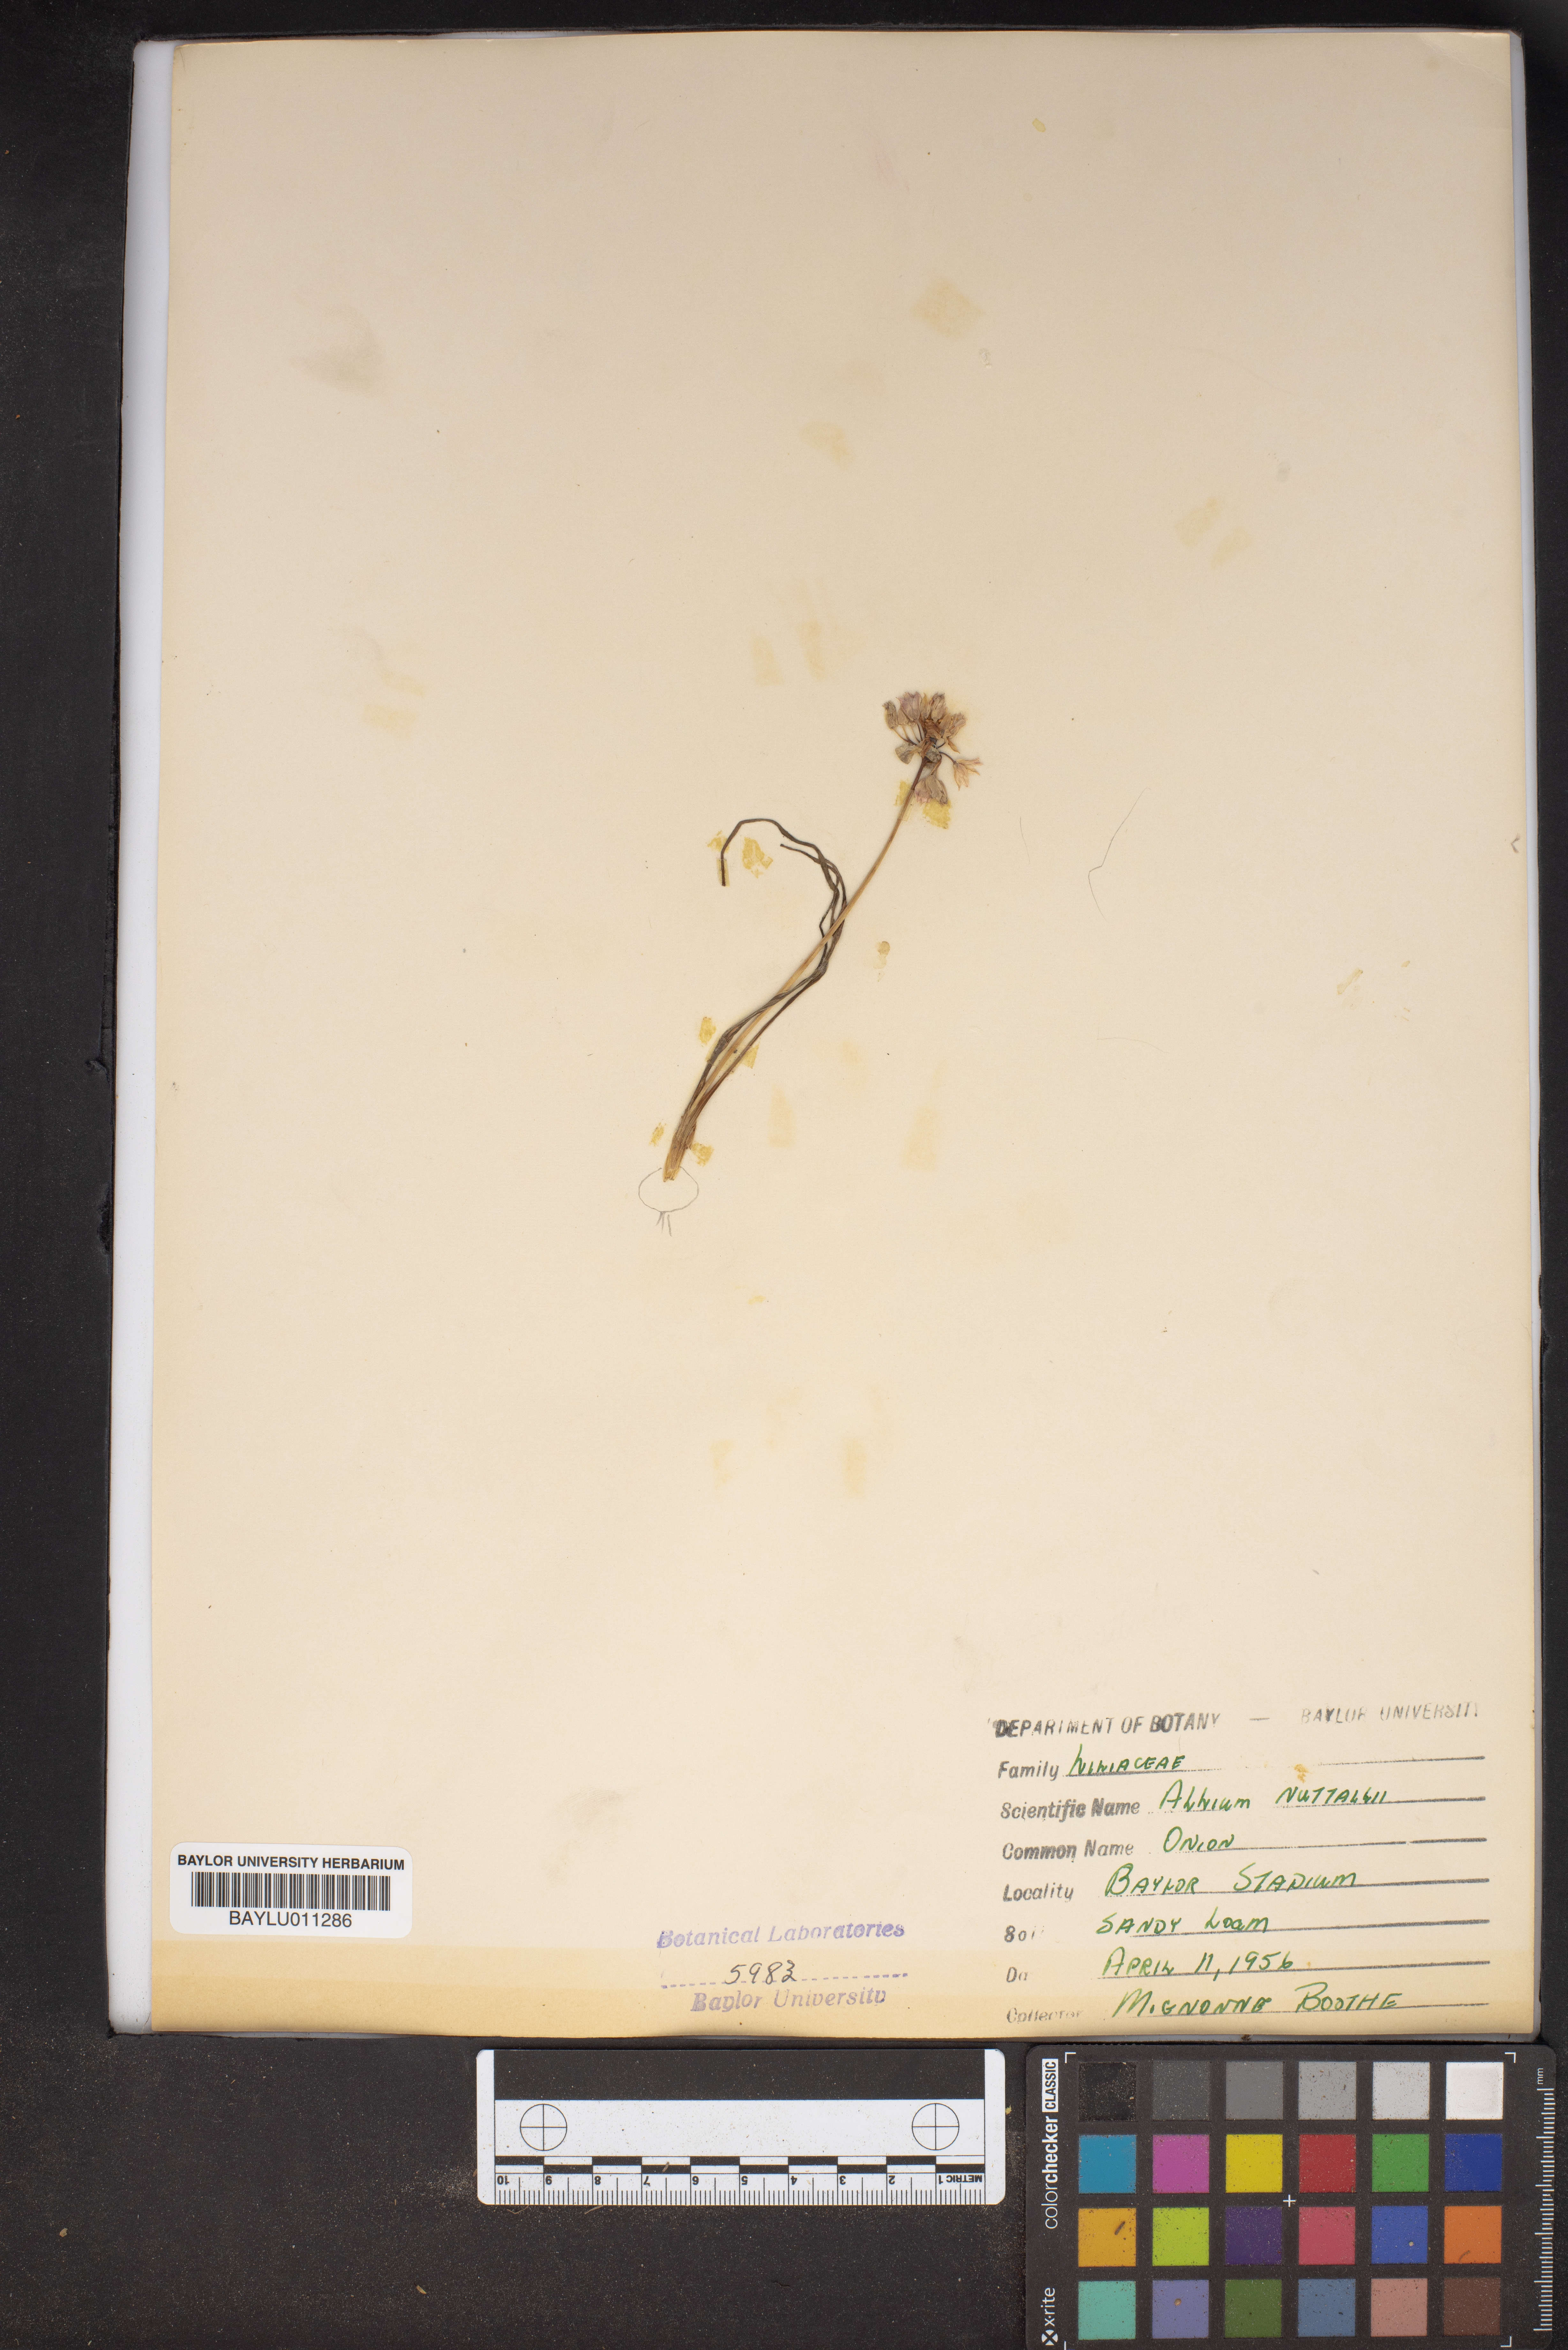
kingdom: Plantae
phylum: Tracheophyta
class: Liliopsida
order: Asparagales
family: Amaryllidaceae
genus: Allium
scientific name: Allium drummondii
